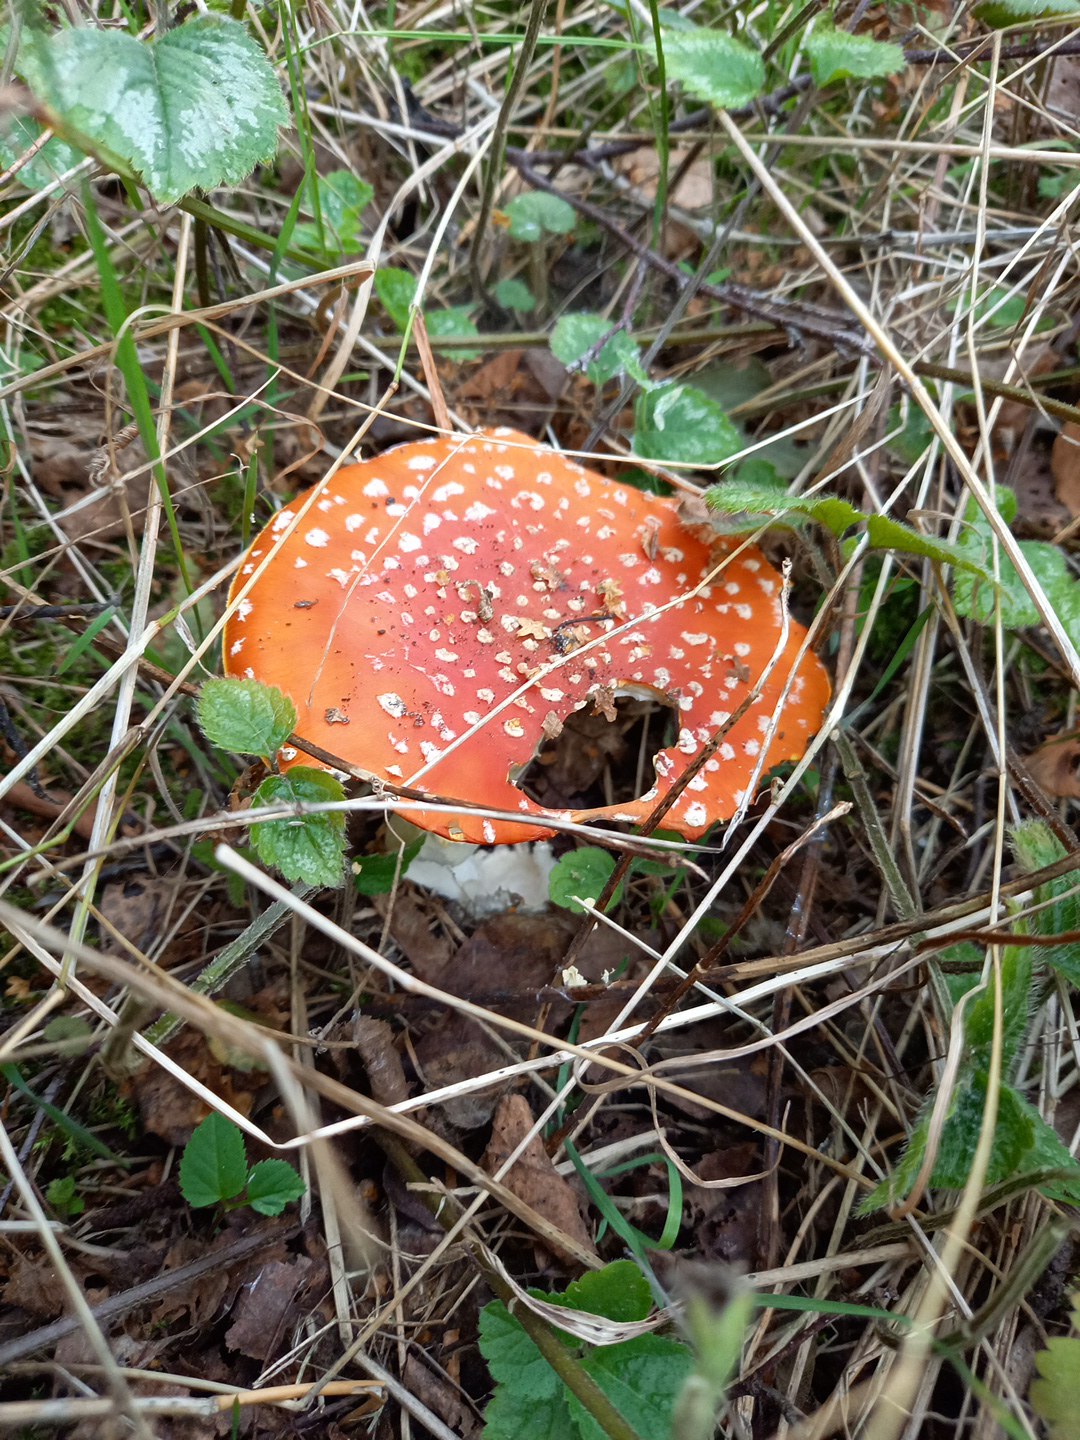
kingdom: Fungi
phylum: Basidiomycota
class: Agaricomycetes
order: Agaricales
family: Amanitaceae
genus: Amanita
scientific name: Amanita muscaria
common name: rød fluesvamp
